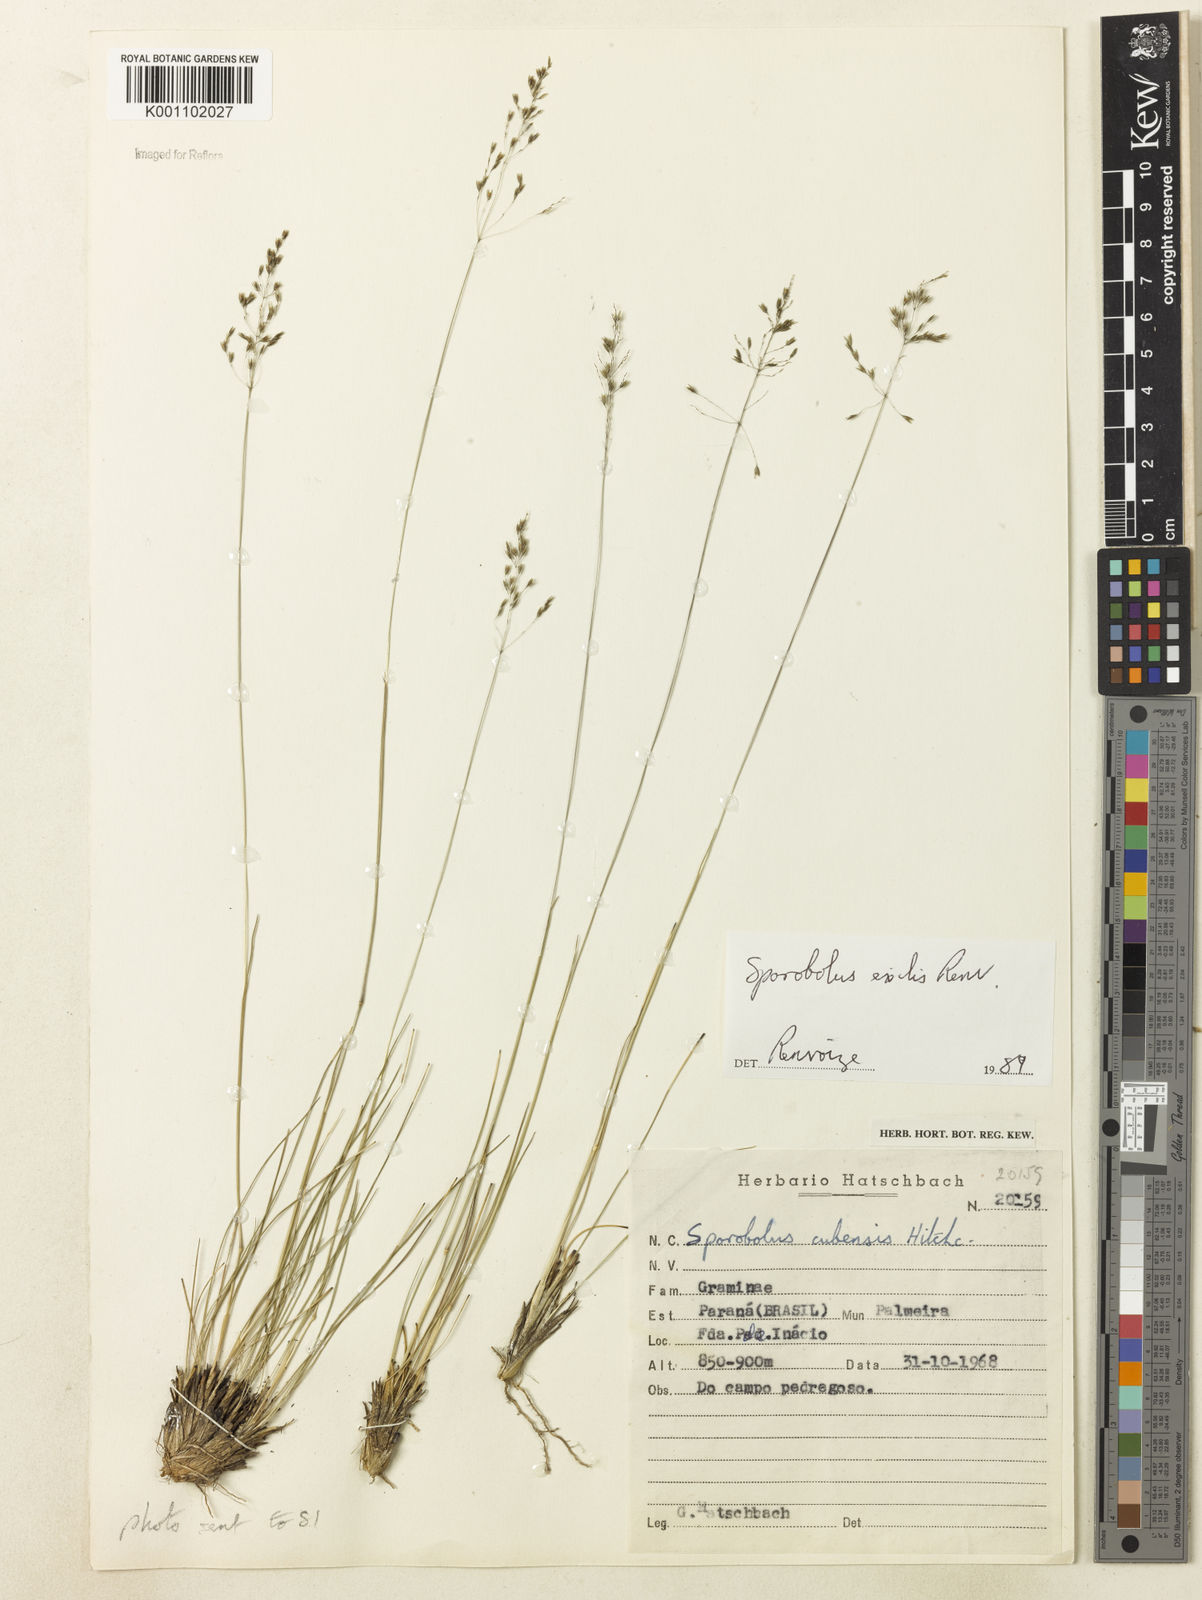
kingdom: Plantae
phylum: Tracheophyta
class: Liliopsida
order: Poales
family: Poaceae
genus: Sporobolus
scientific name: Sporobolus linearifolius
